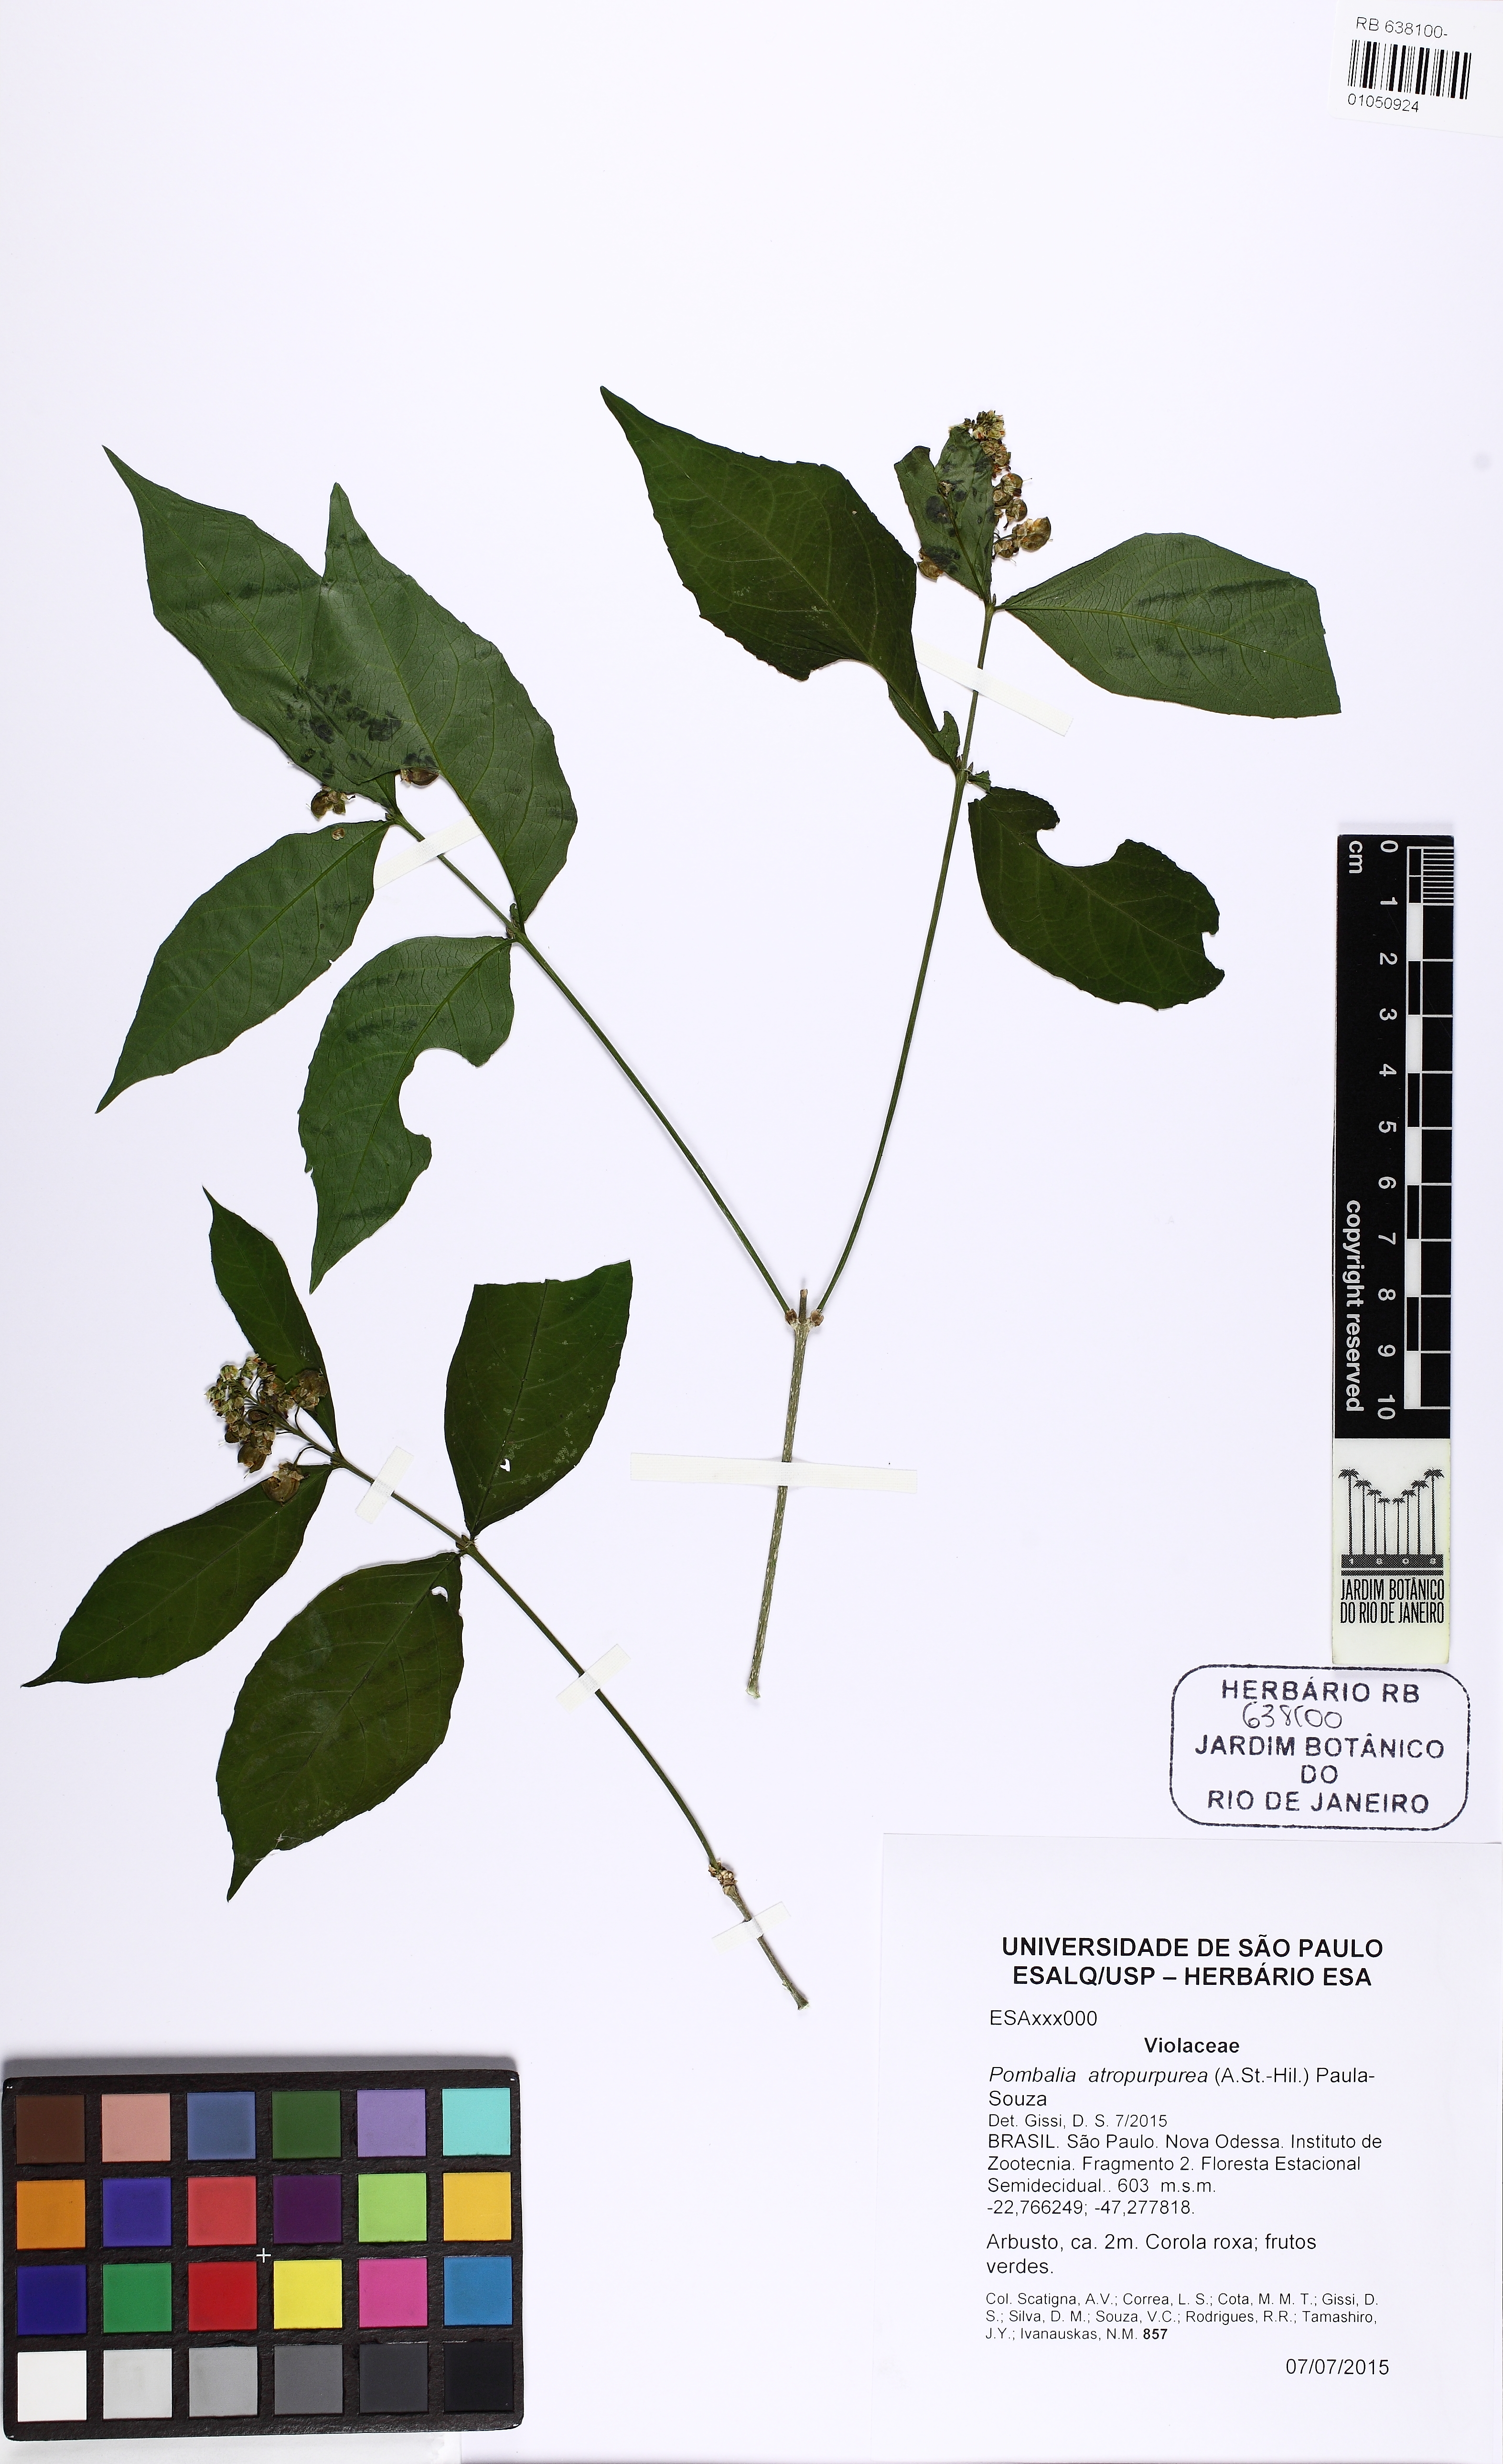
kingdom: Plantae
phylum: Tracheophyta
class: Magnoliopsida
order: Malpighiales
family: Violaceae
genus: Pombalia
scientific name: Pombalia atropurpurea
